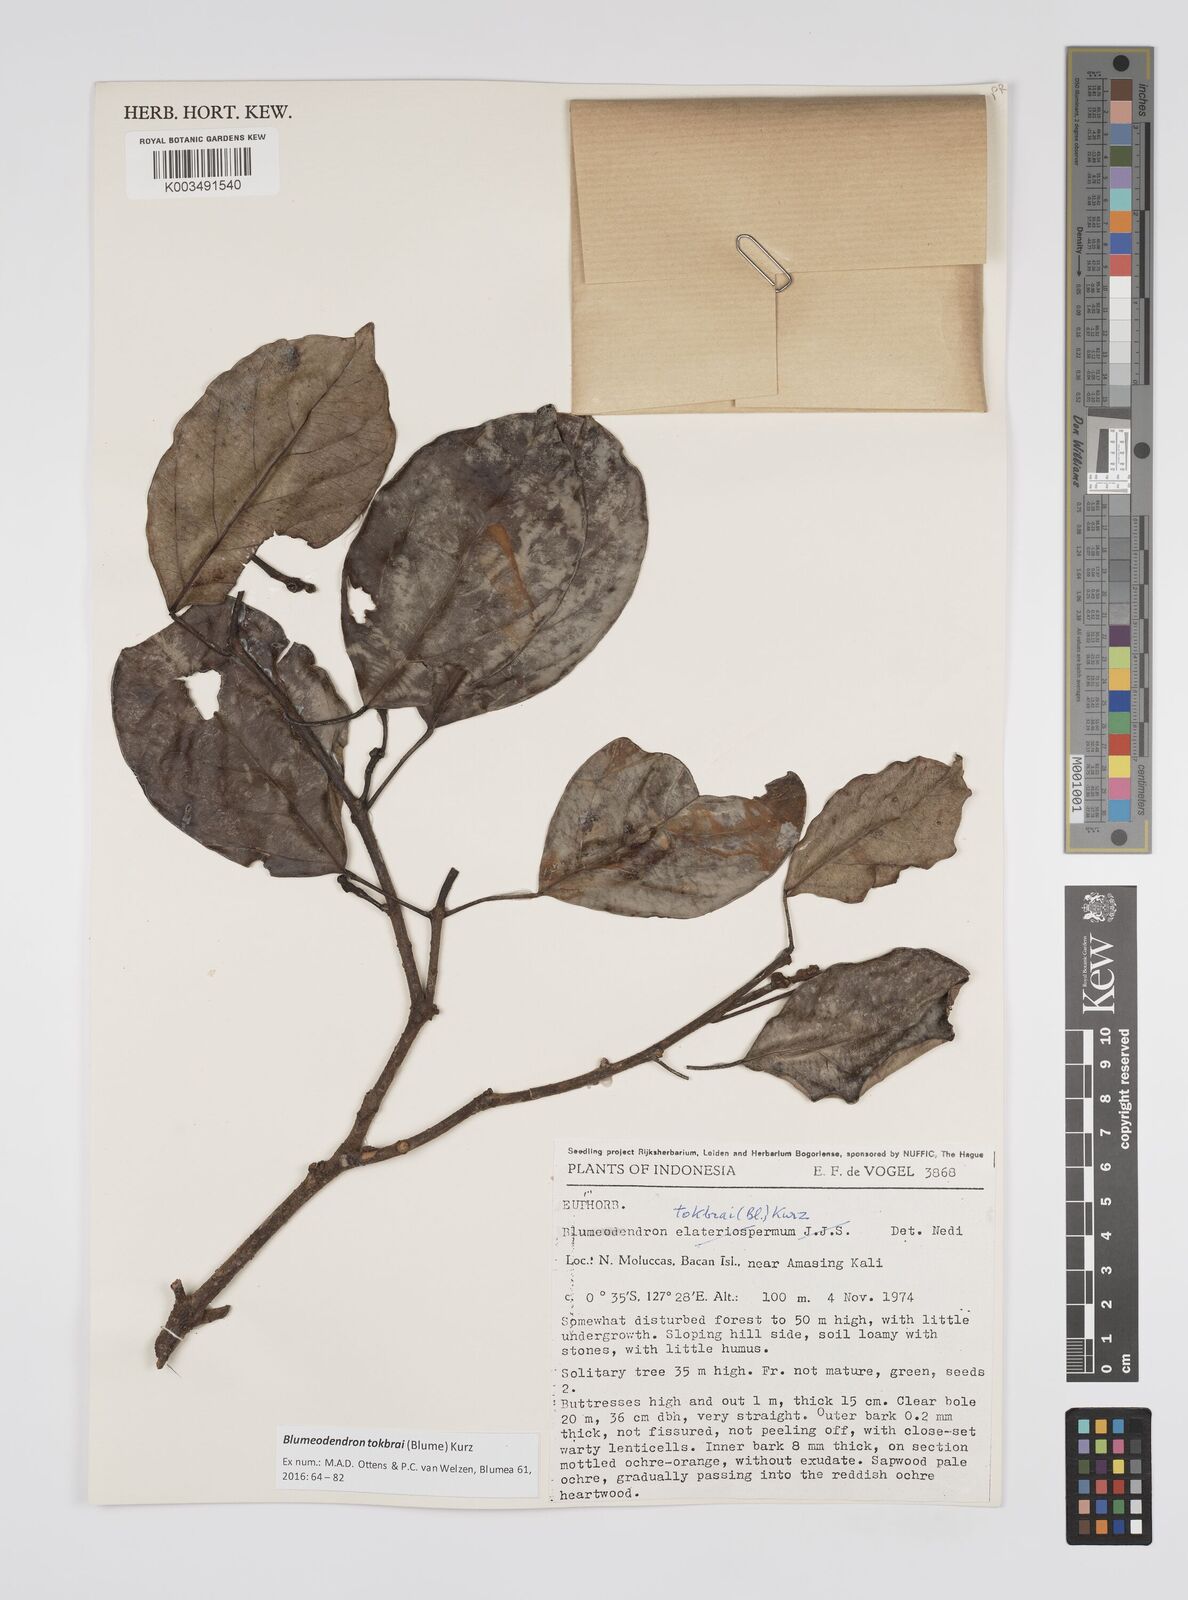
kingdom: Plantae
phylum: Tracheophyta
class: Magnoliopsida
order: Malpighiales
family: Euphorbiaceae
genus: Blumeodendron
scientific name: Blumeodendron tokbrai
